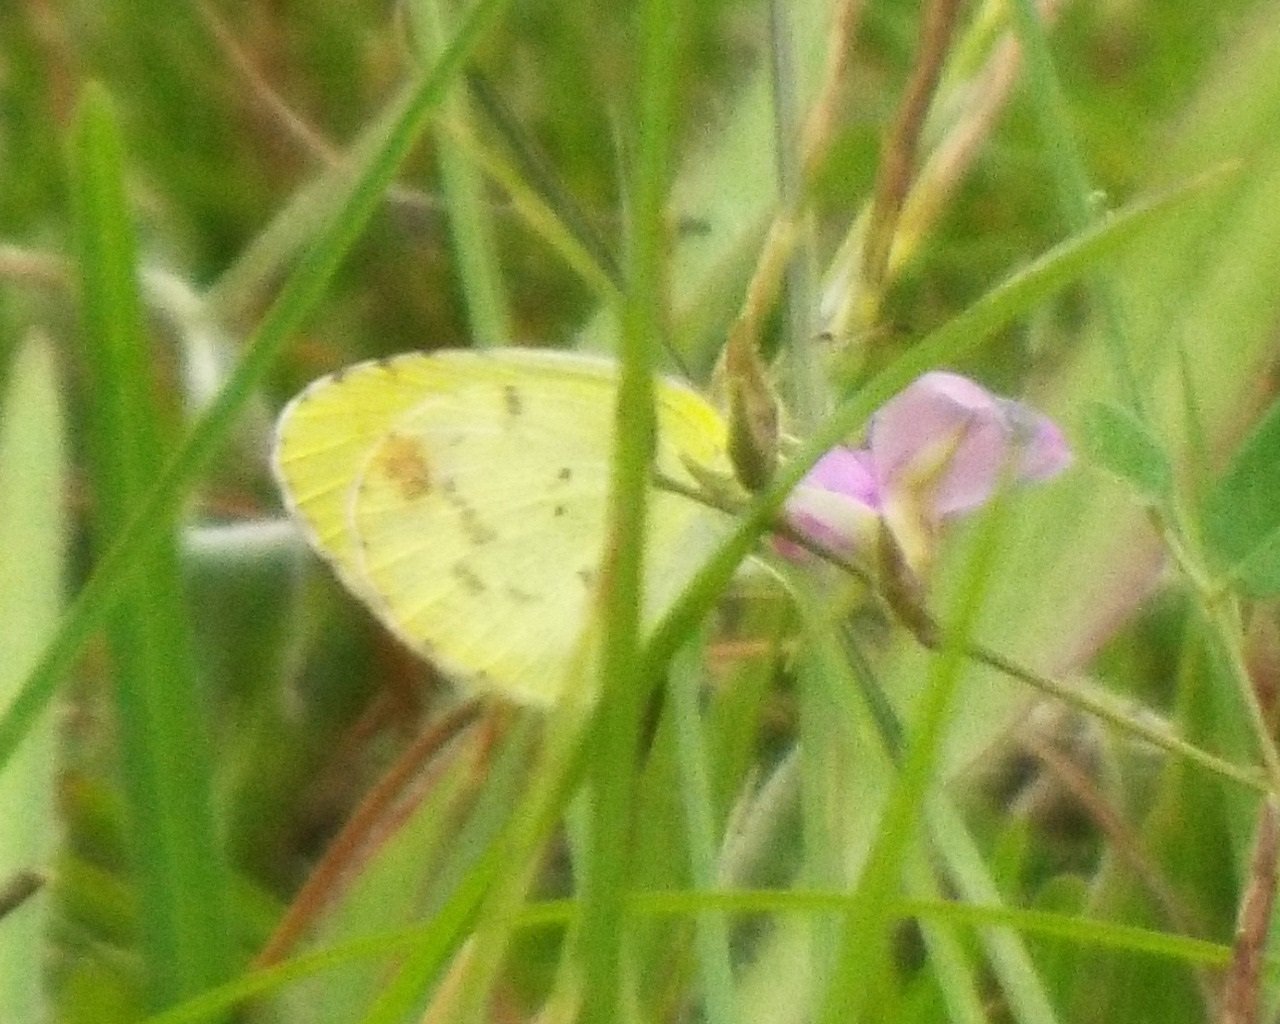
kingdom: Animalia
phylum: Arthropoda
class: Insecta
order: Lepidoptera
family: Pieridae
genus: Pyrisitia
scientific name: Pyrisitia lisa
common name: Little Yellow
